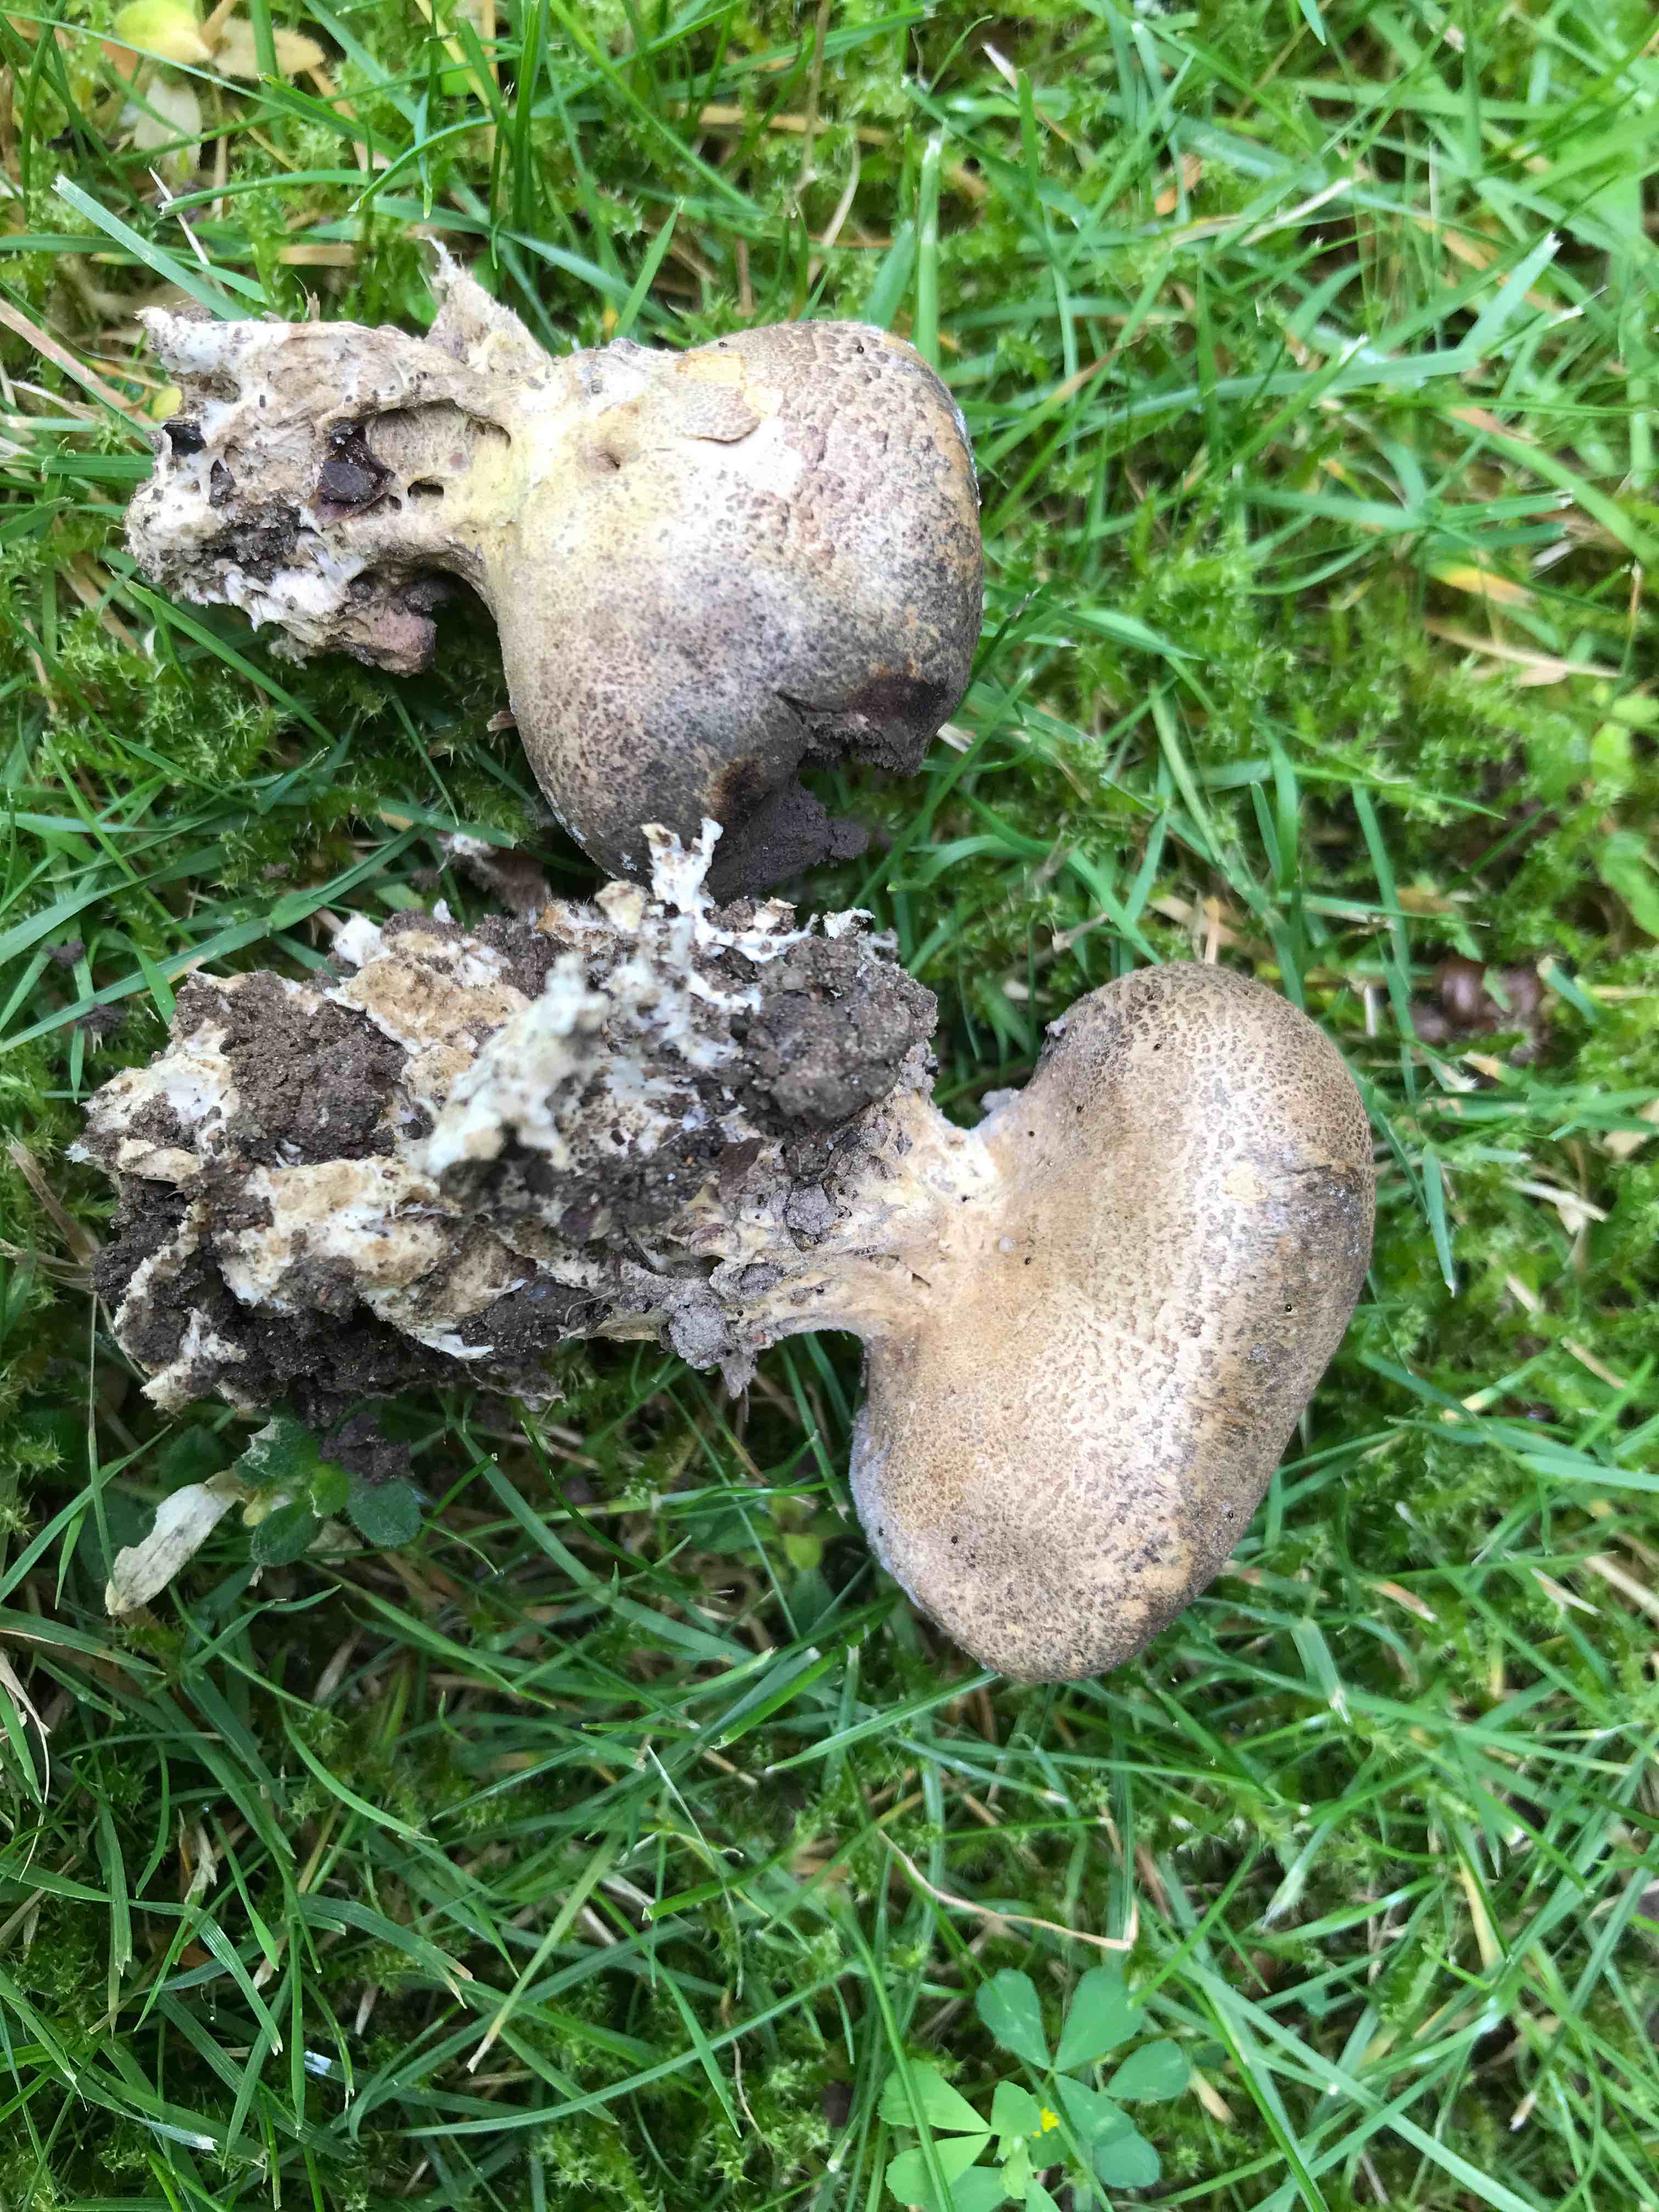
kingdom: Fungi
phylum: Basidiomycota
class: Agaricomycetes
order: Boletales
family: Sclerodermataceae
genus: Scleroderma
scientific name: Scleroderma verrucosum
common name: stilket bruskbold
